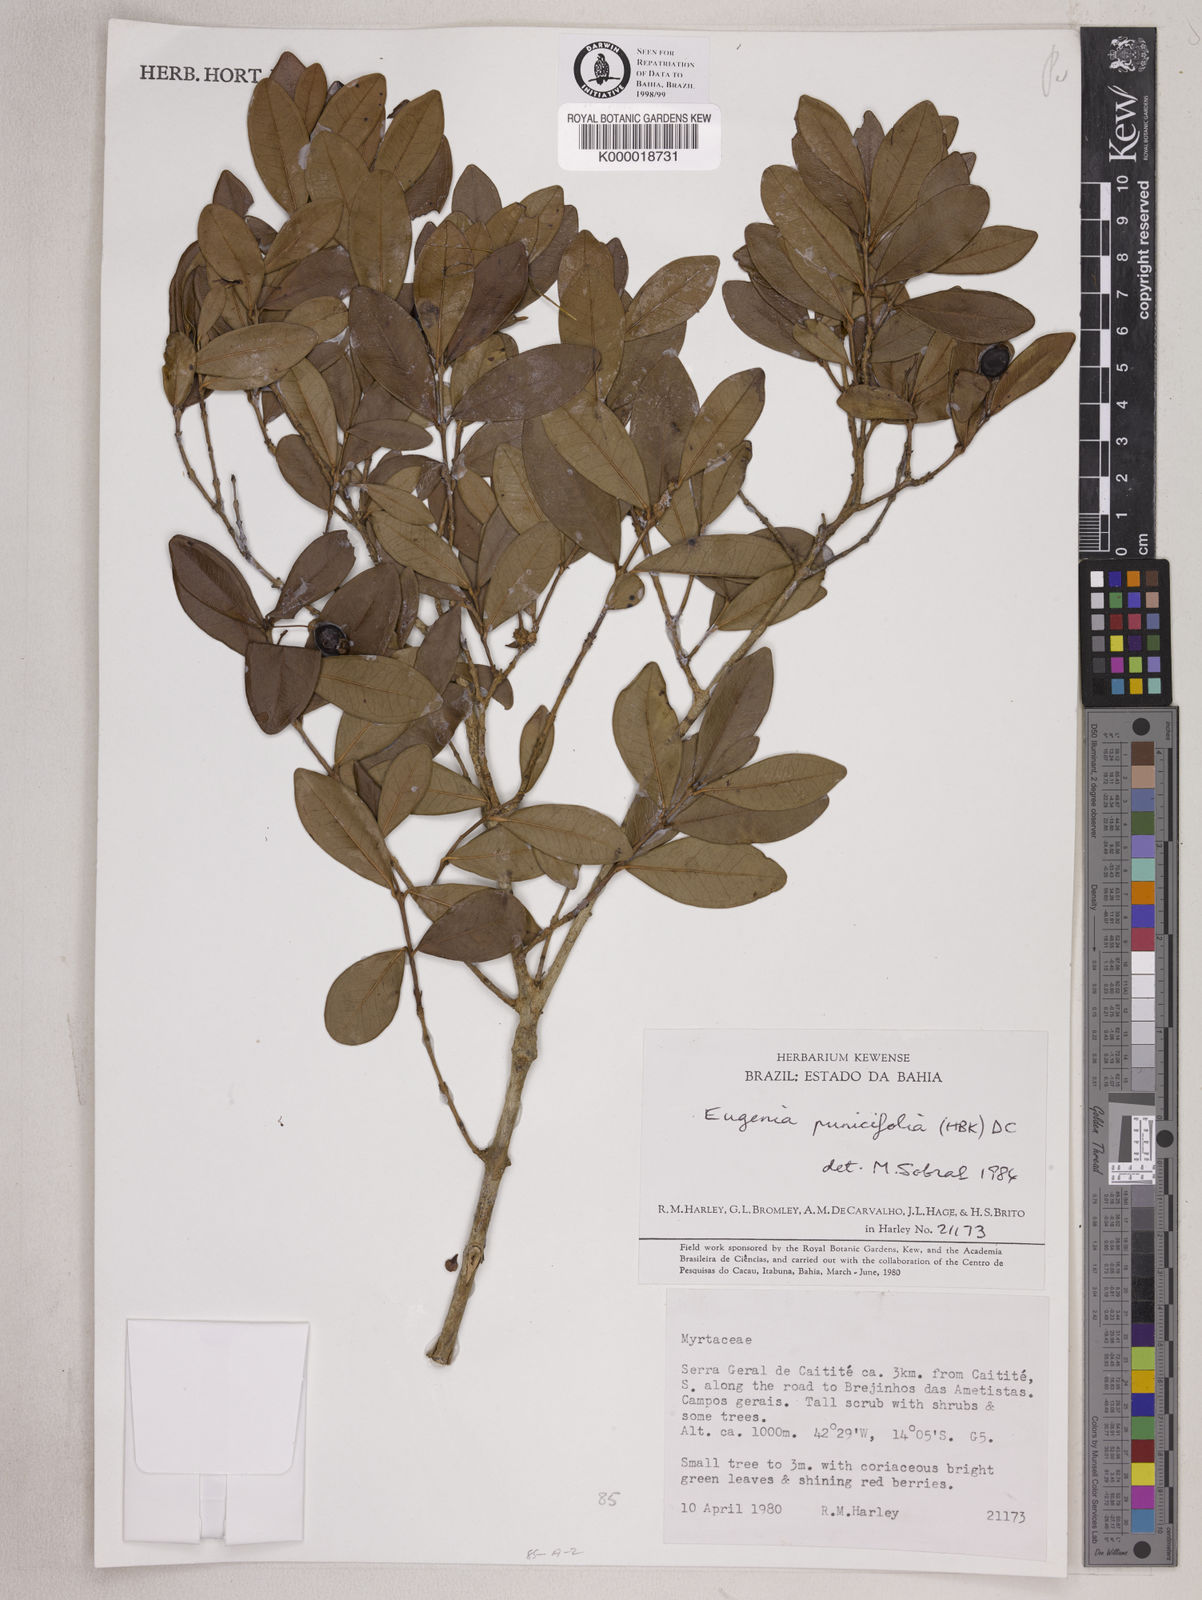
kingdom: Plantae
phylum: Tracheophyta
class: Magnoliopsida
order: Myrtales
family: Myrtaceae
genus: Eugenia
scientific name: Eugenia punicifolia
